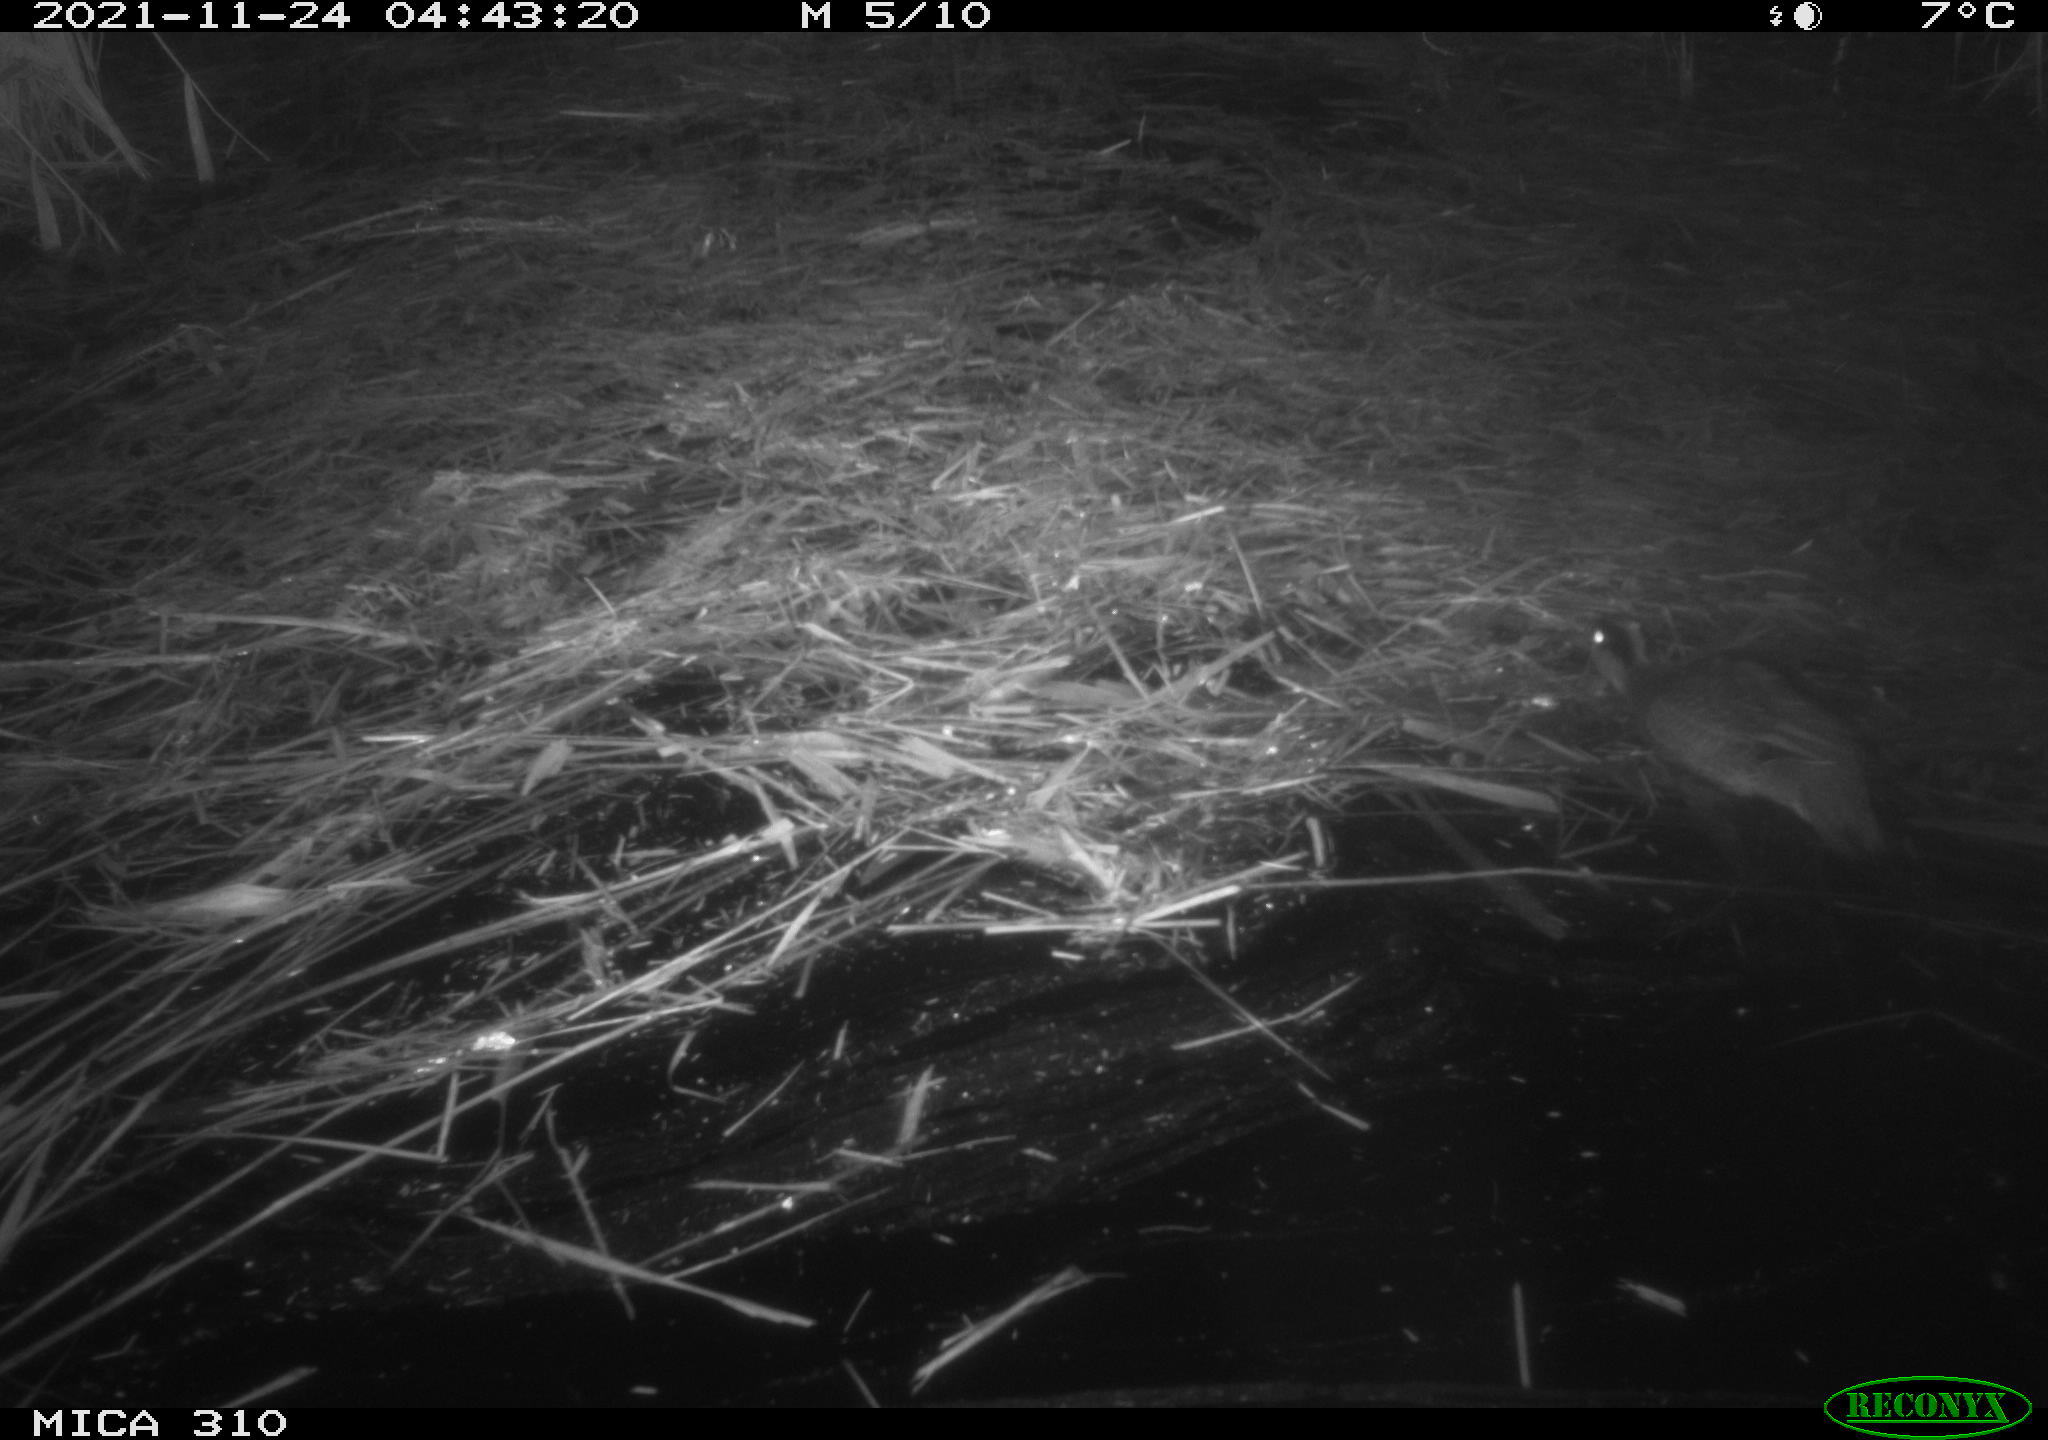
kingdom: Animalia
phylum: Chordata
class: Aves
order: Anseriformes
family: Anatidae
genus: Anas
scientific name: Anas crecca
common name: Eurasian teal
